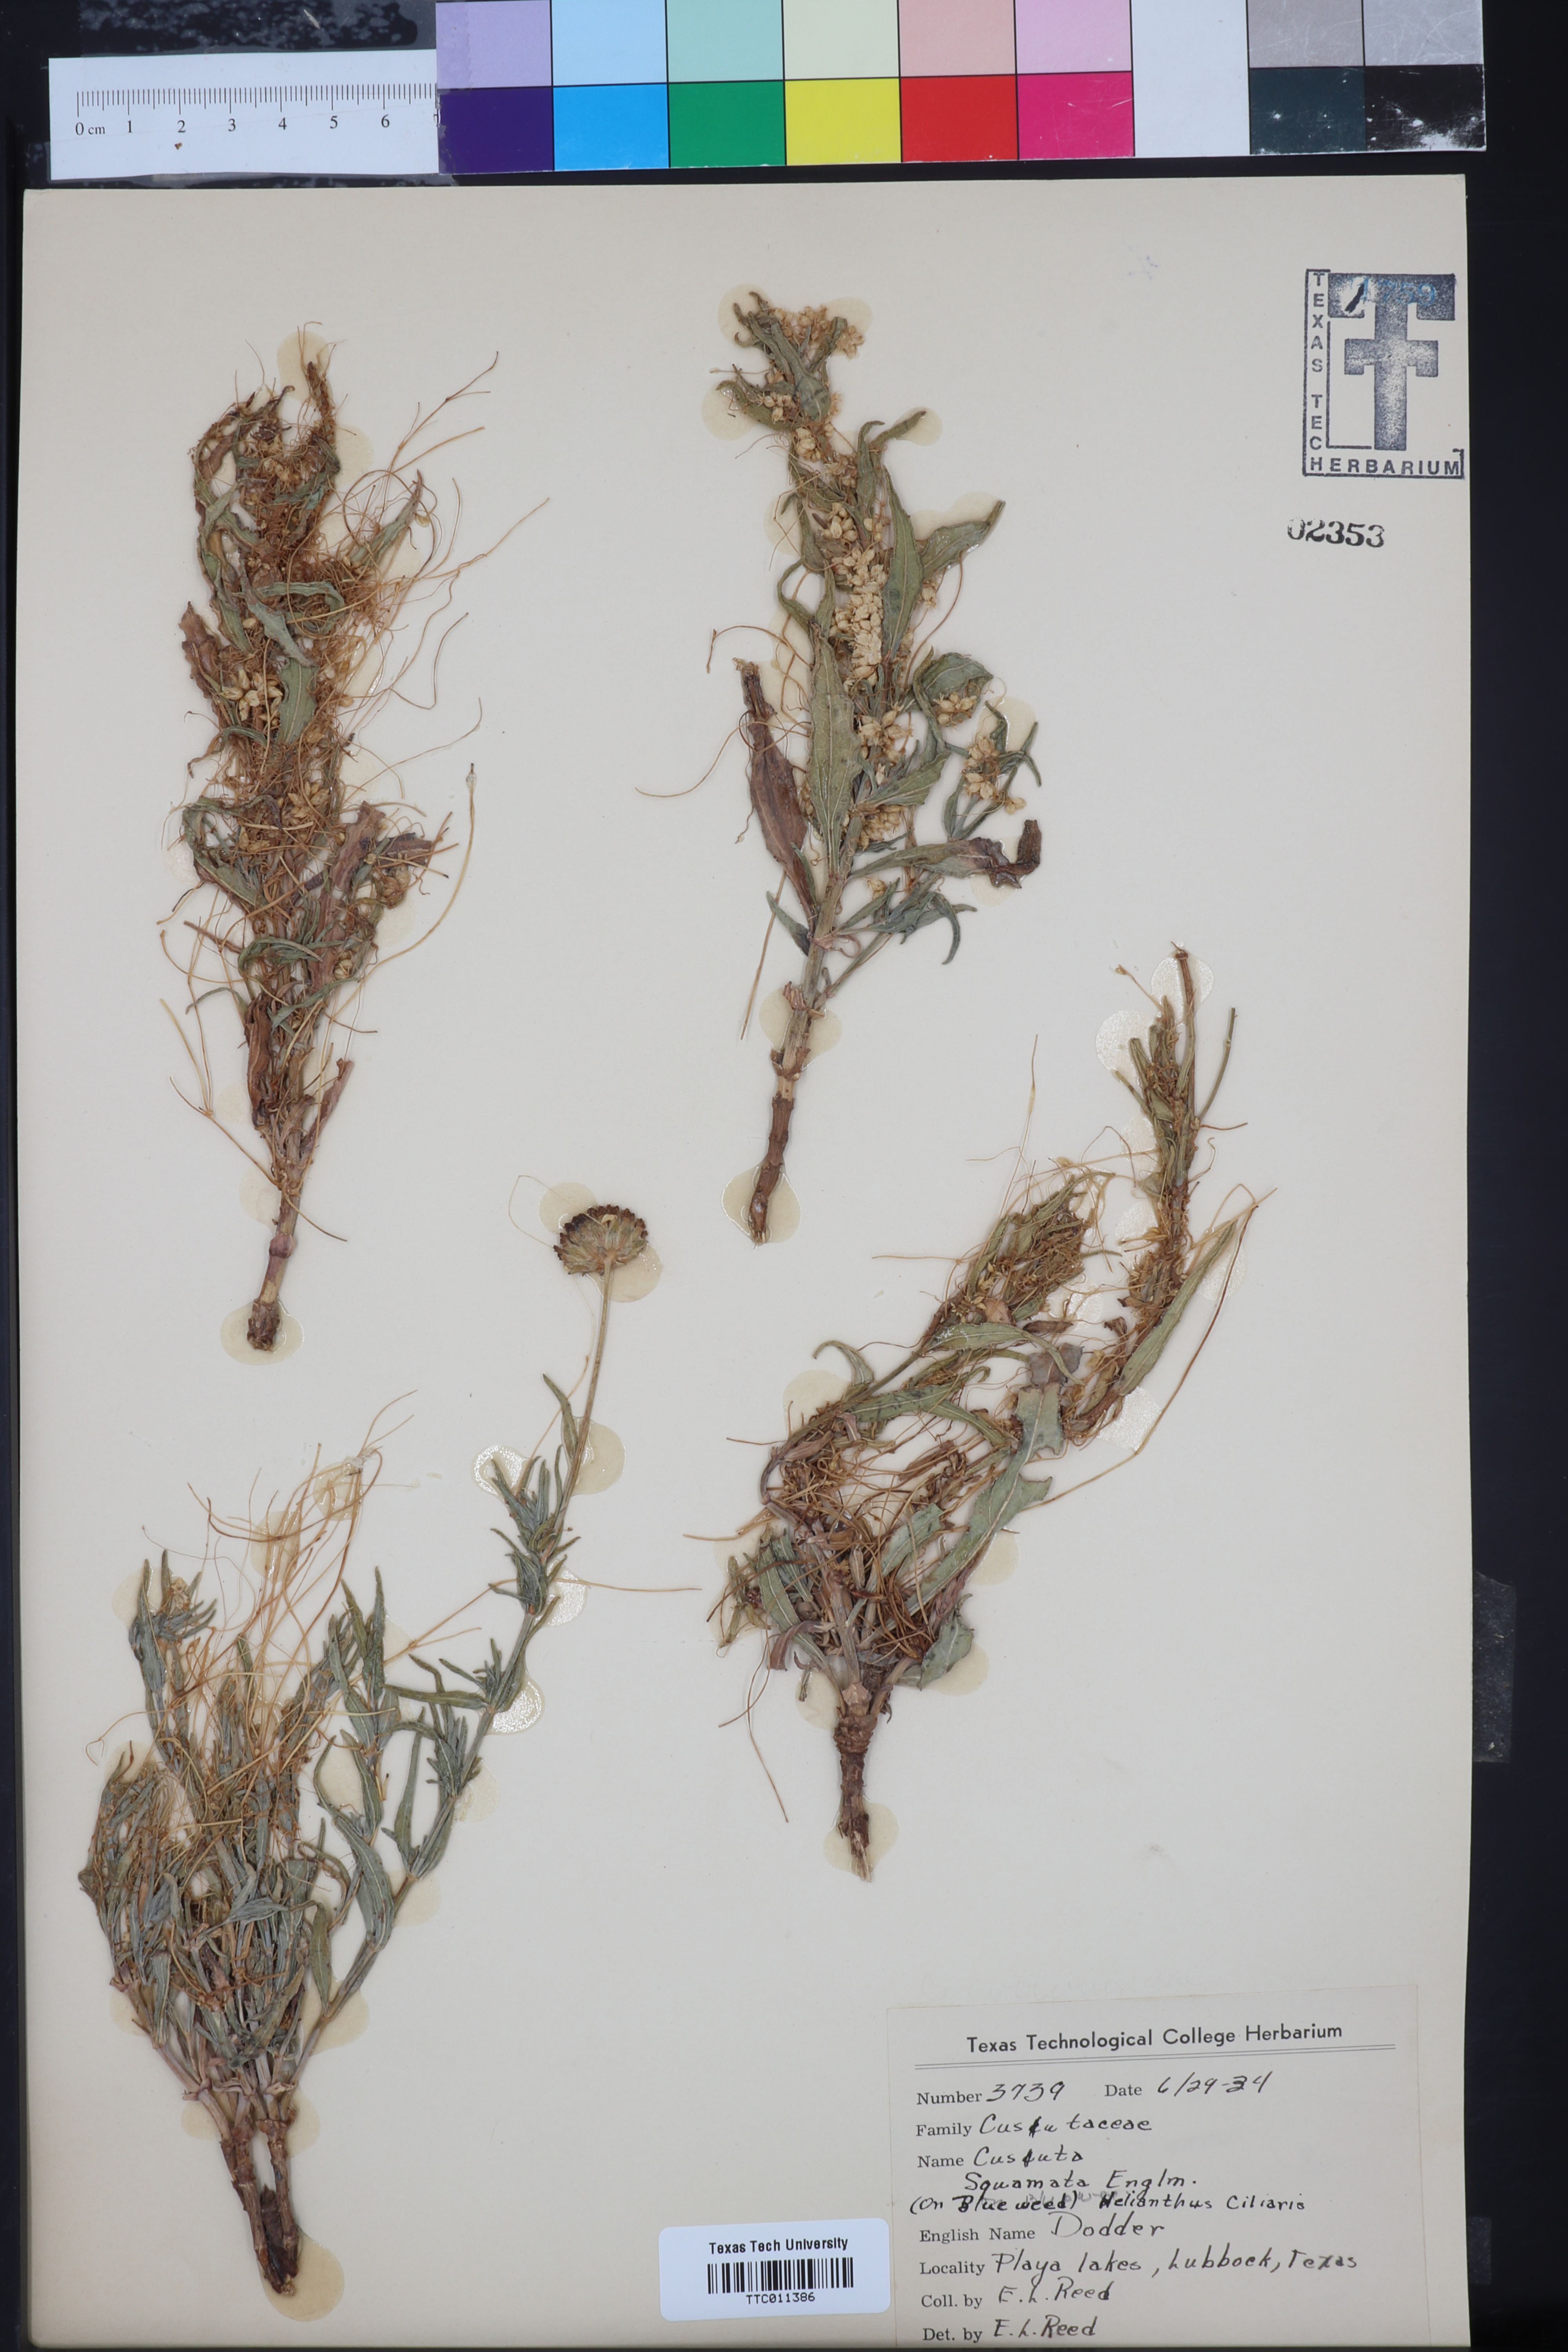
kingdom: Plantae
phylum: Tracheophyta
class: Magnoliopsida
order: Solanales
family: Convolvulaceae
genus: Cuscuta
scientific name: Cuscuta squamata
